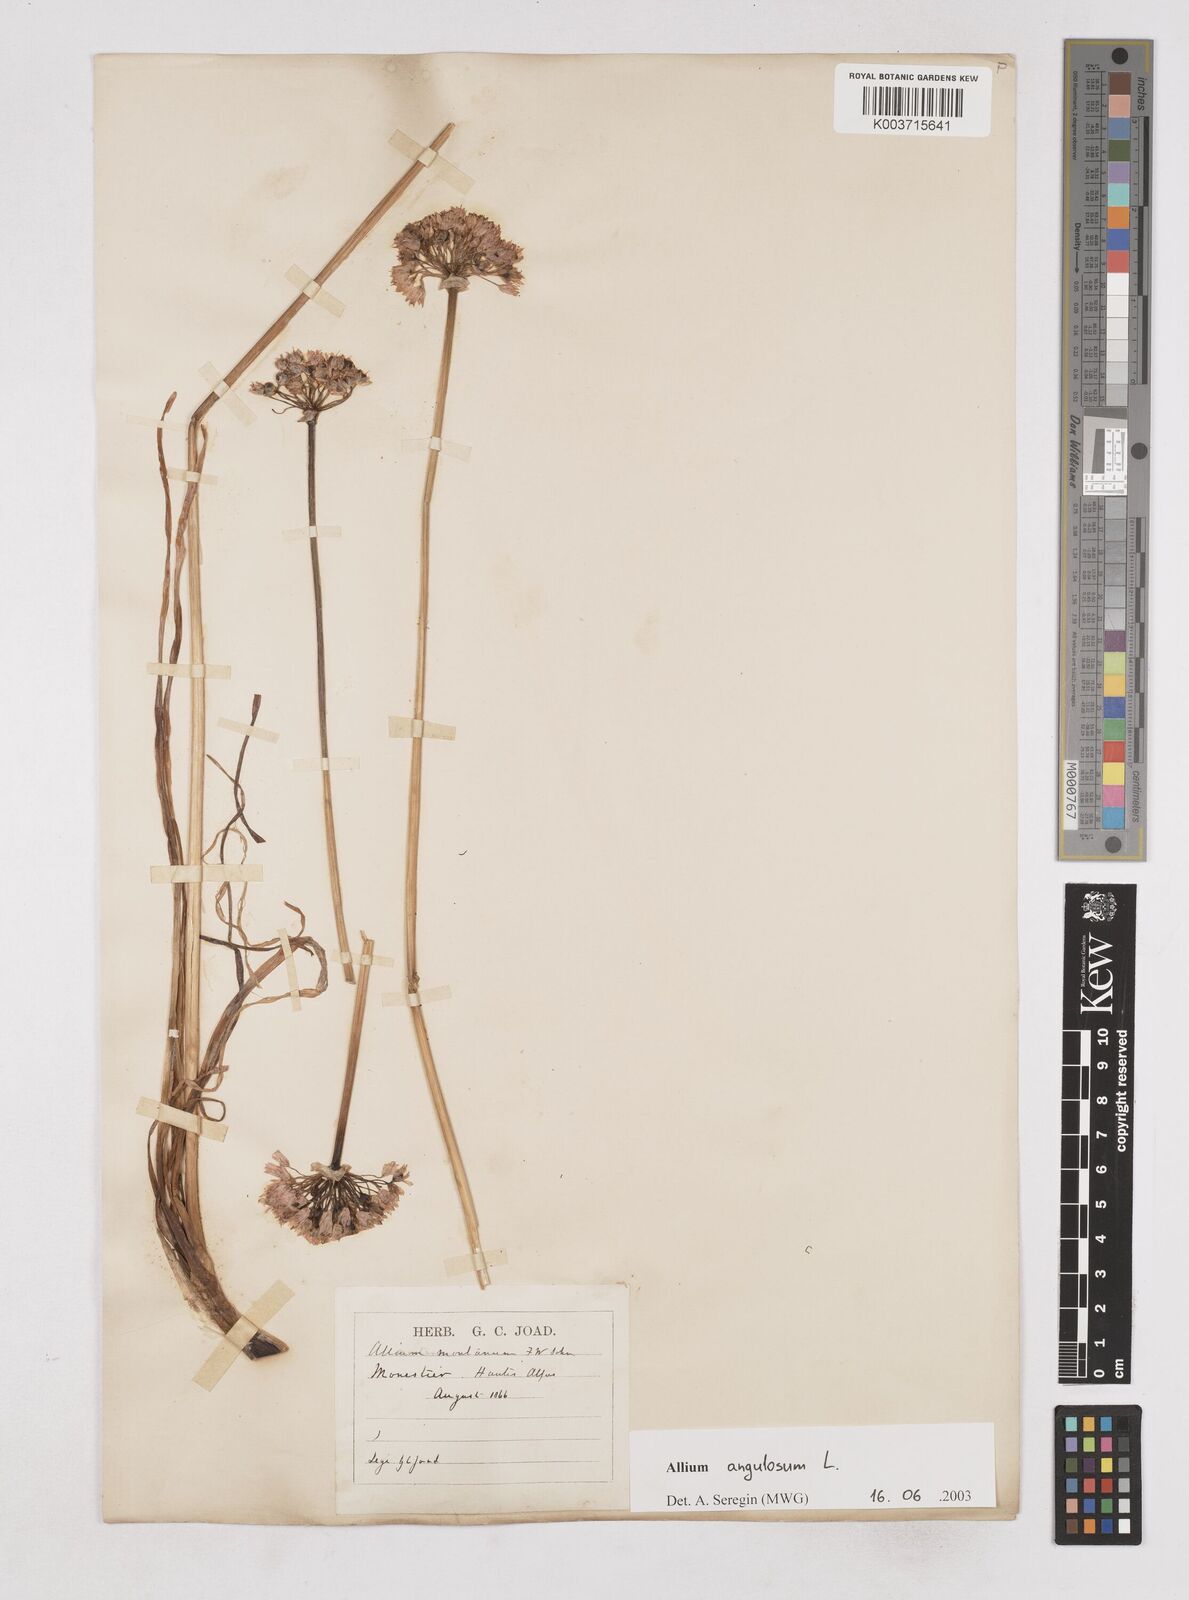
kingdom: Plantae
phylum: Tracheophyta
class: Liliopsida
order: Asparagales
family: Amaryllidaceae
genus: Allium
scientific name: Allium angulosum
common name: Mouse garlic
